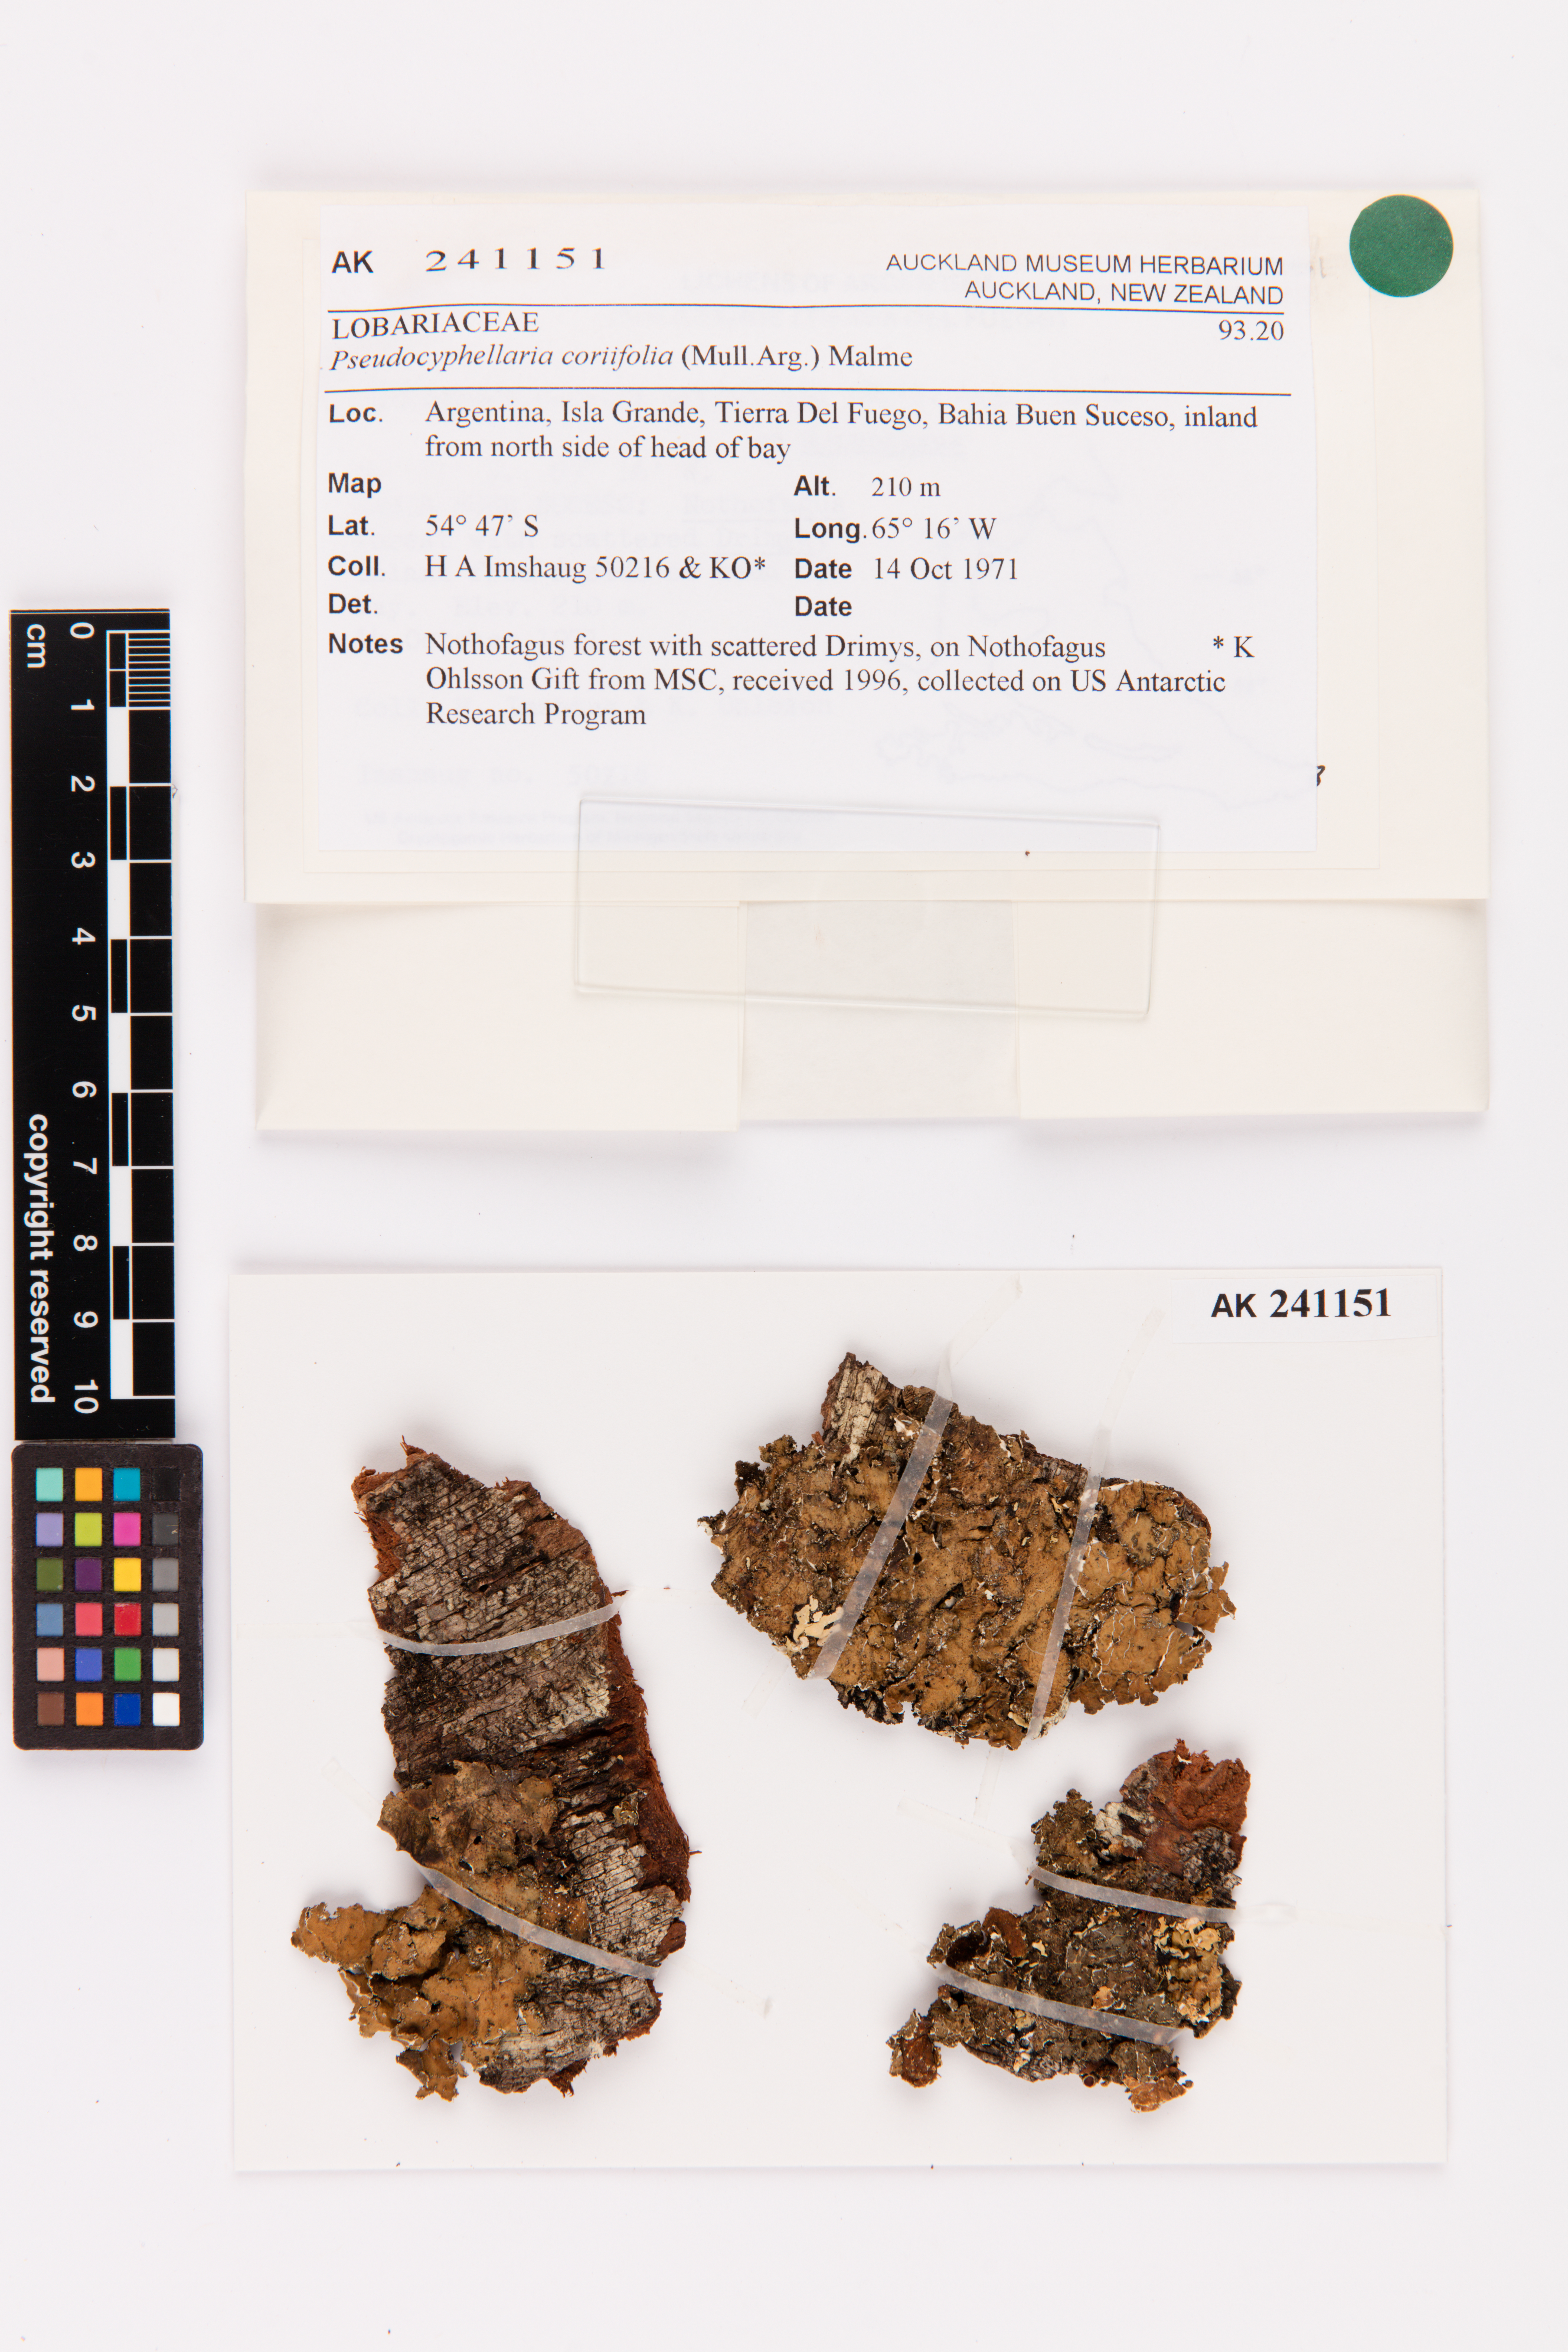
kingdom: Fungi
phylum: Ascomycota
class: Lecanoromycetes
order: Peltigerales
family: Lobariaceae
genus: Pseudocyphellaria
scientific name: Pseudocyphellaria coriifolia
